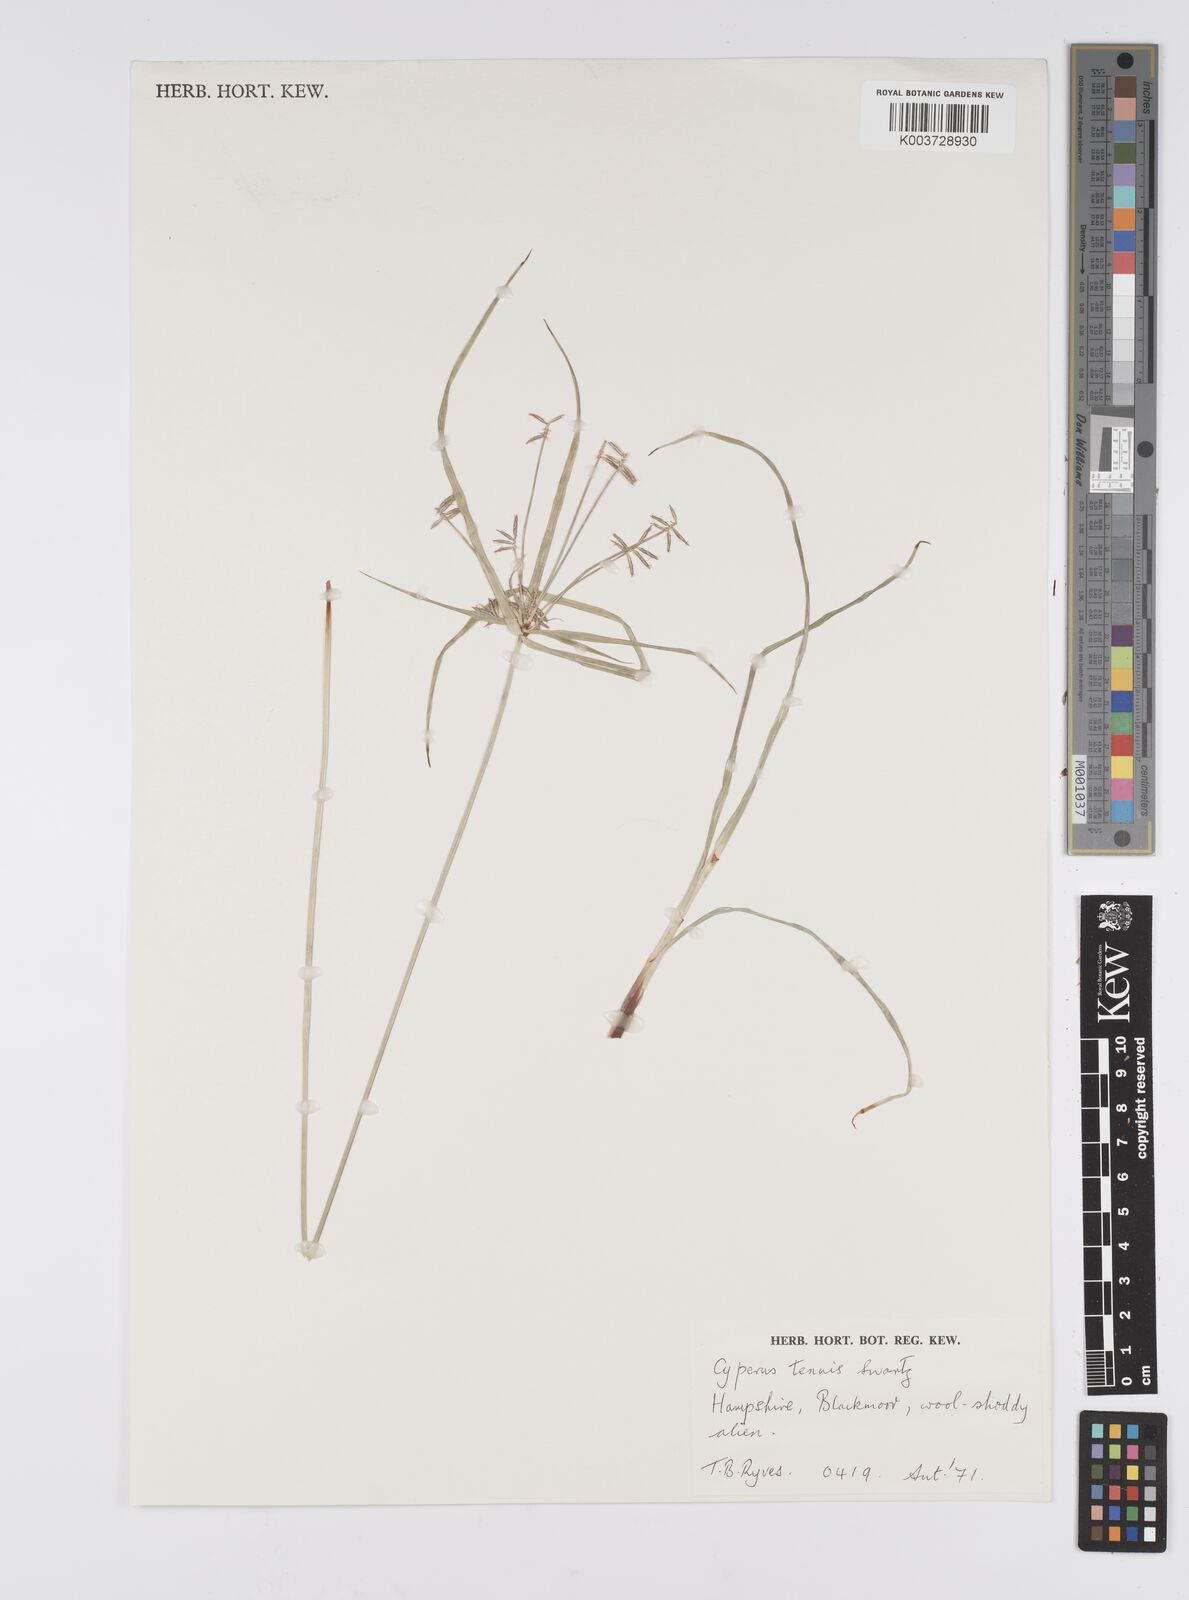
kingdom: Plantae
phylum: Tracheophyta
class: Liliopsida
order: Poales
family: Cyperaceae
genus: Cyperus
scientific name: Cyperus
